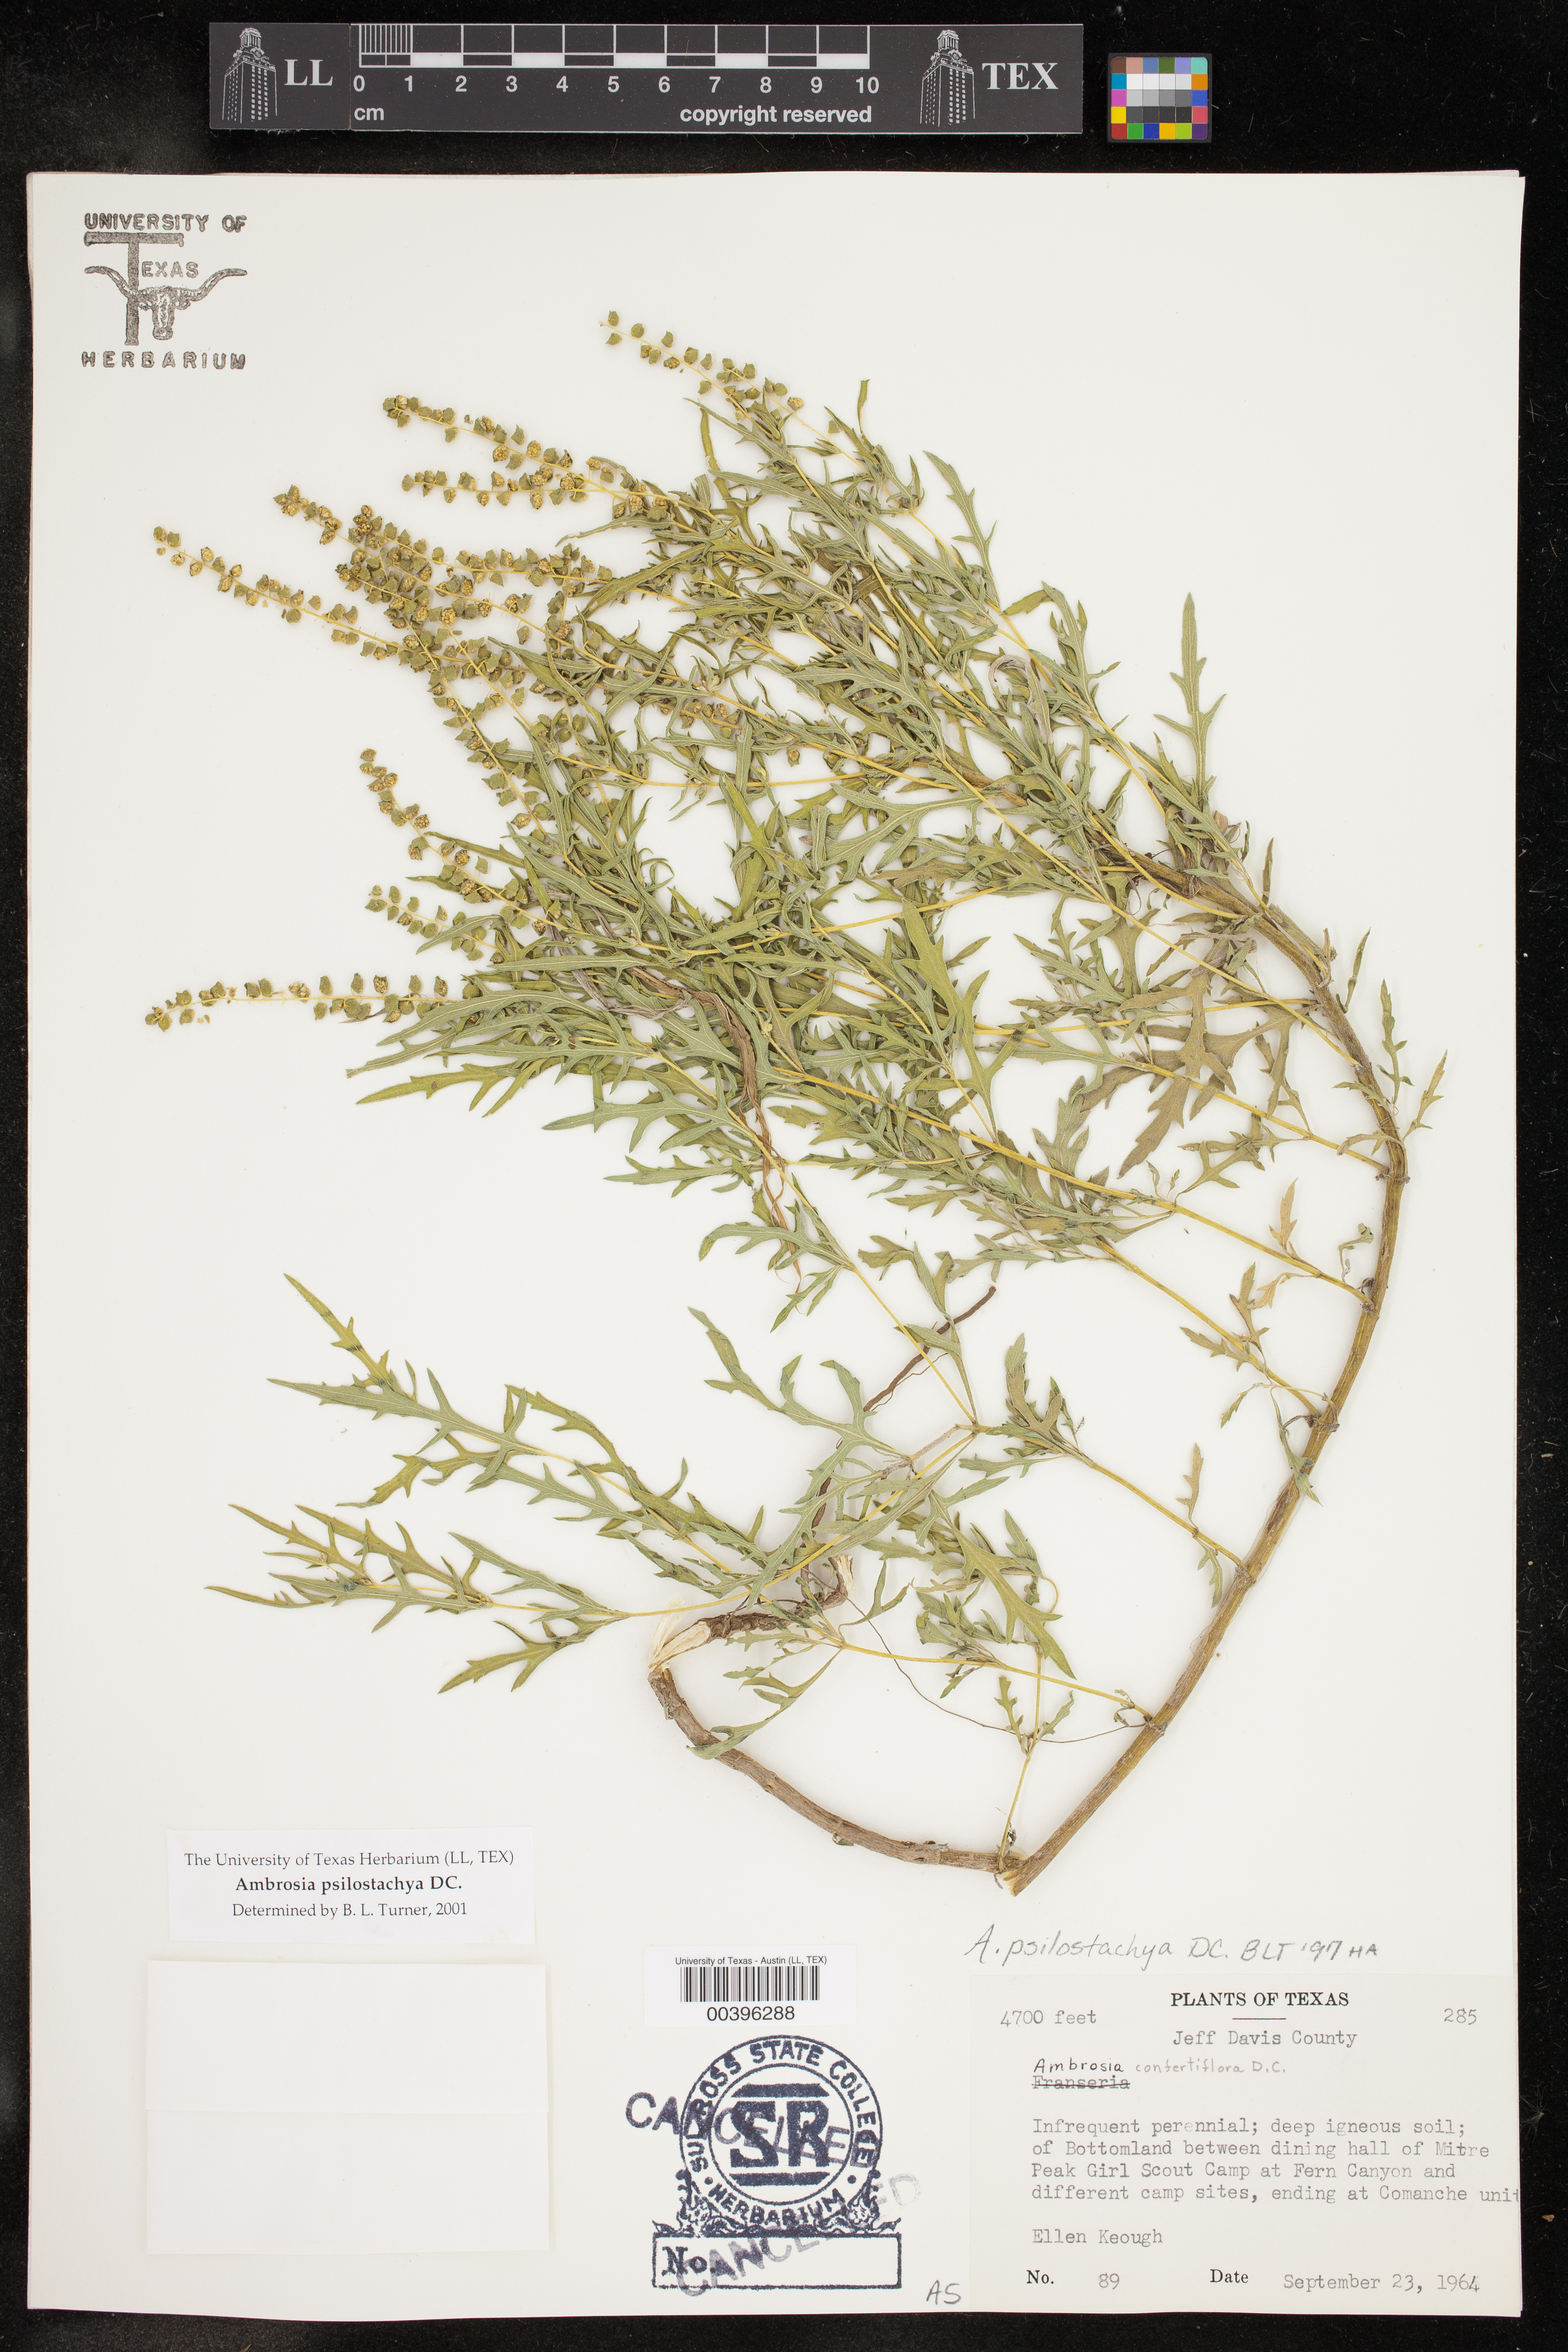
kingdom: Plantae
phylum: Tracheophyta
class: Magnoliopsida
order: Asterales
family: Asteraceae
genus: Ambrosia
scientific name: Ambrosia psilostachya
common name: Perennial ragweed
